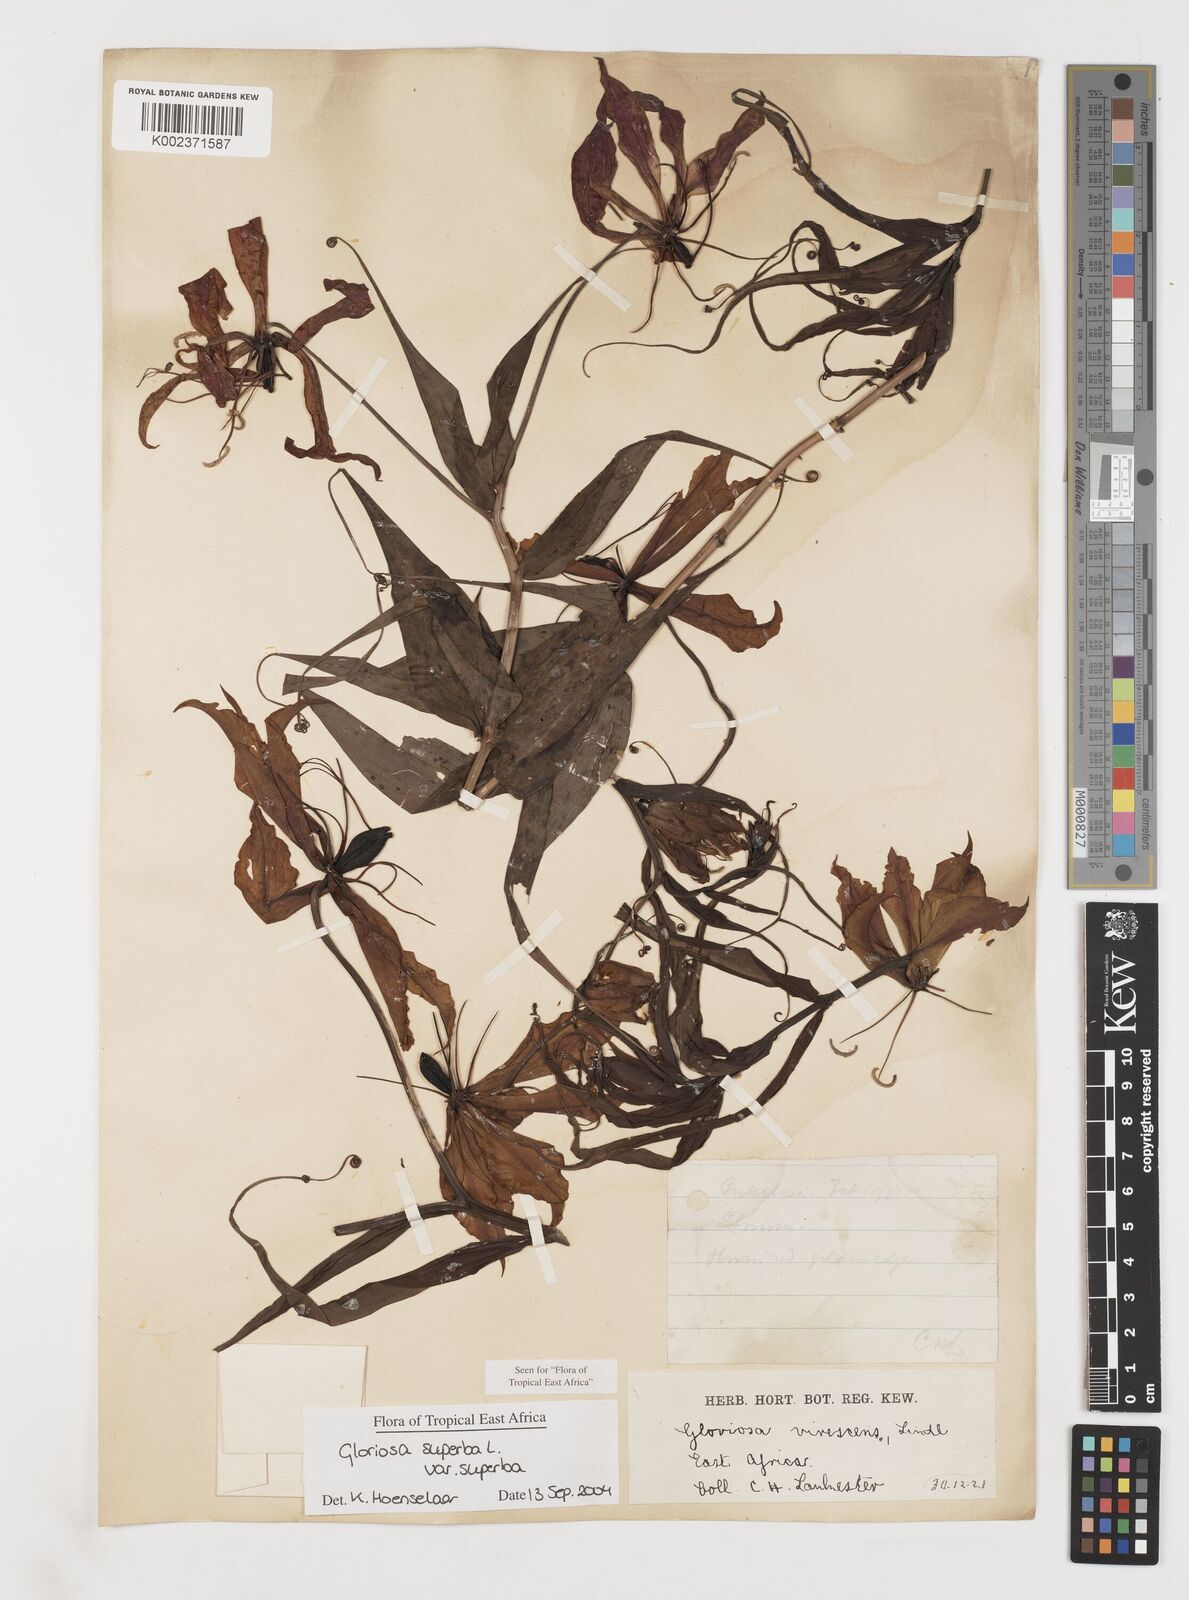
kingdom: Plantae
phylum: Tracheophyta
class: Liliopsida
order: Liliales
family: Colchicaceae
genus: Gloriosa
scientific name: Gloriosa simplex
